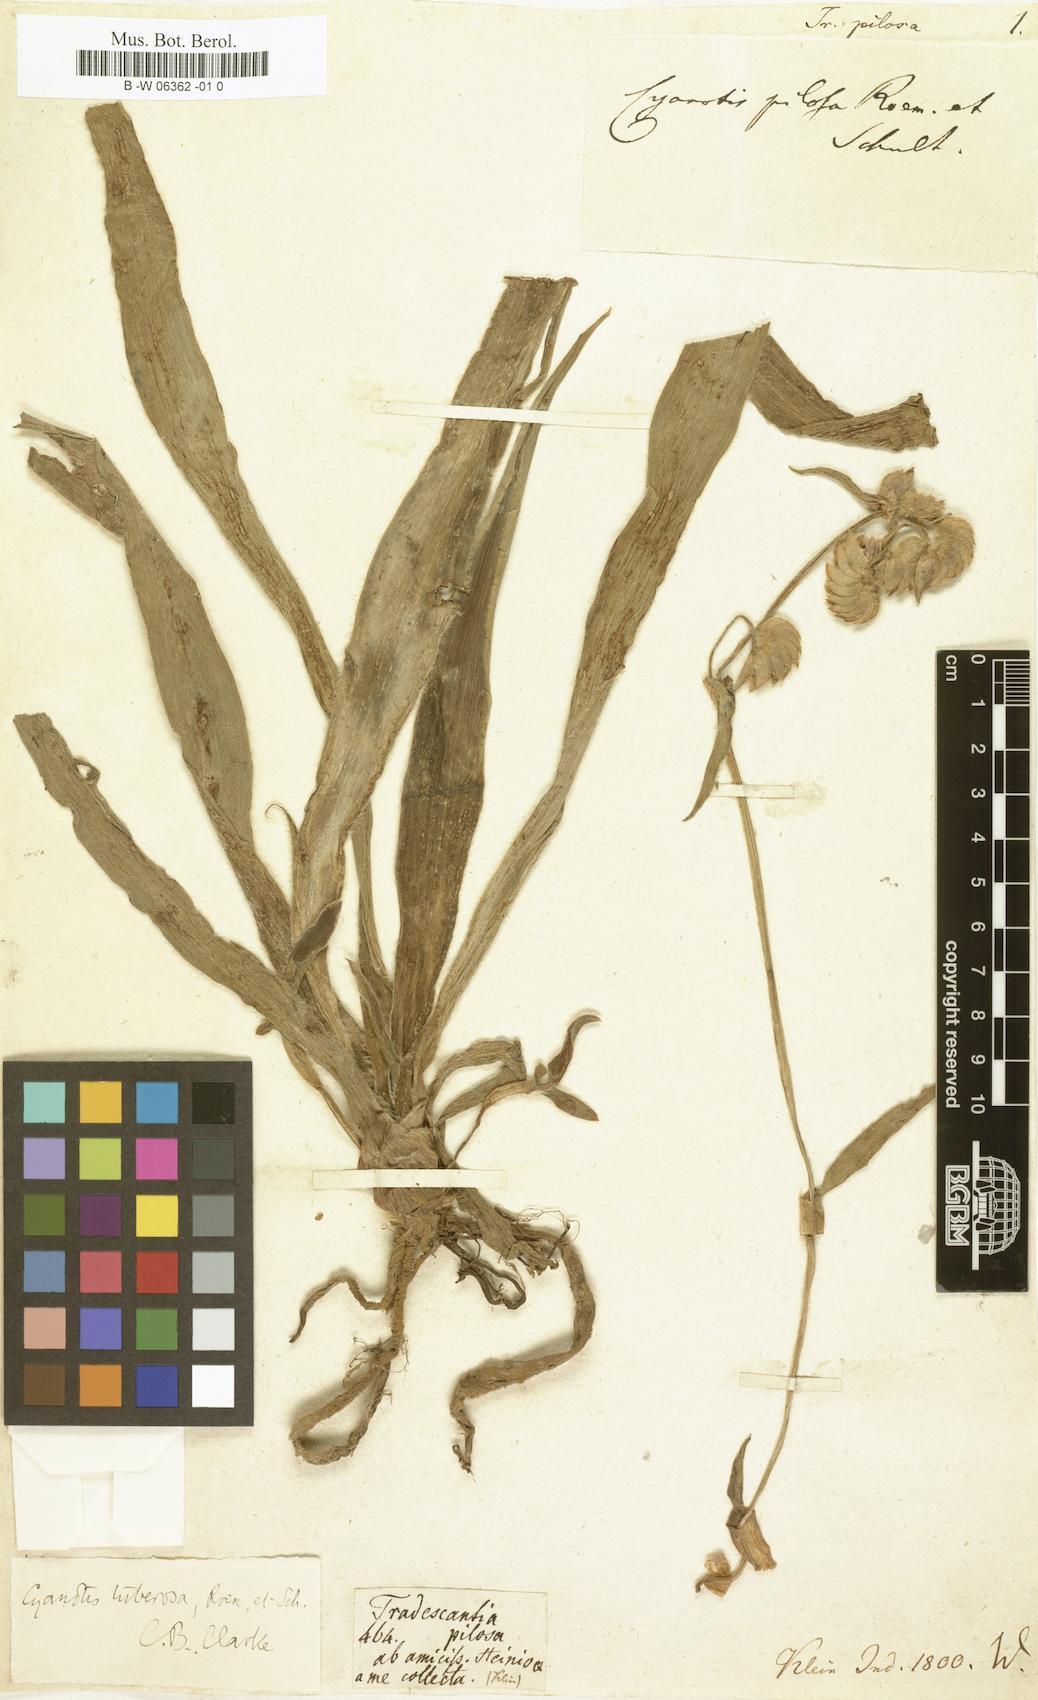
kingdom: Plantae
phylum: Tracheophyta
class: Liliopsida
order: Commelinales
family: Commelinaceae
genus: Tradescantia
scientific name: Tradescantia subaspera
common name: Wide-leaf spiderwort
